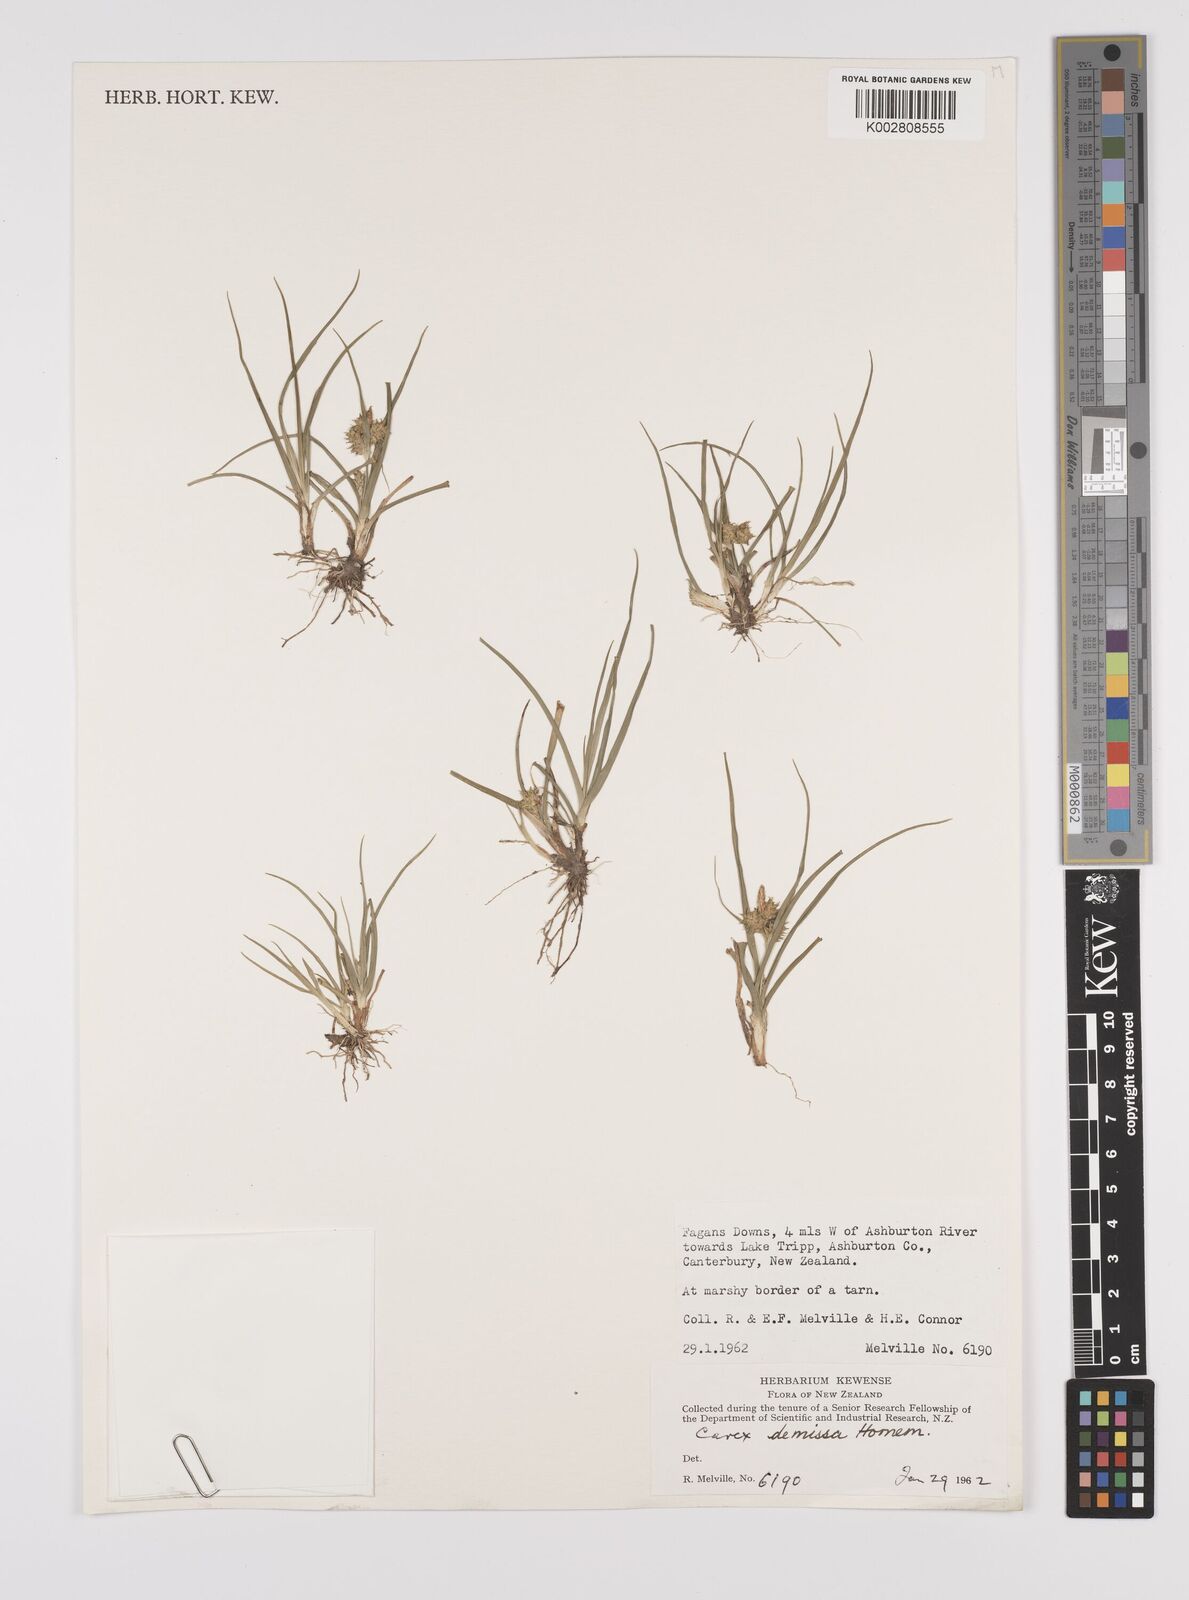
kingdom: Plantae
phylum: Tracheophyta
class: Liliopsida
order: Poales
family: Cyperaceae
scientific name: Cyperaceae
